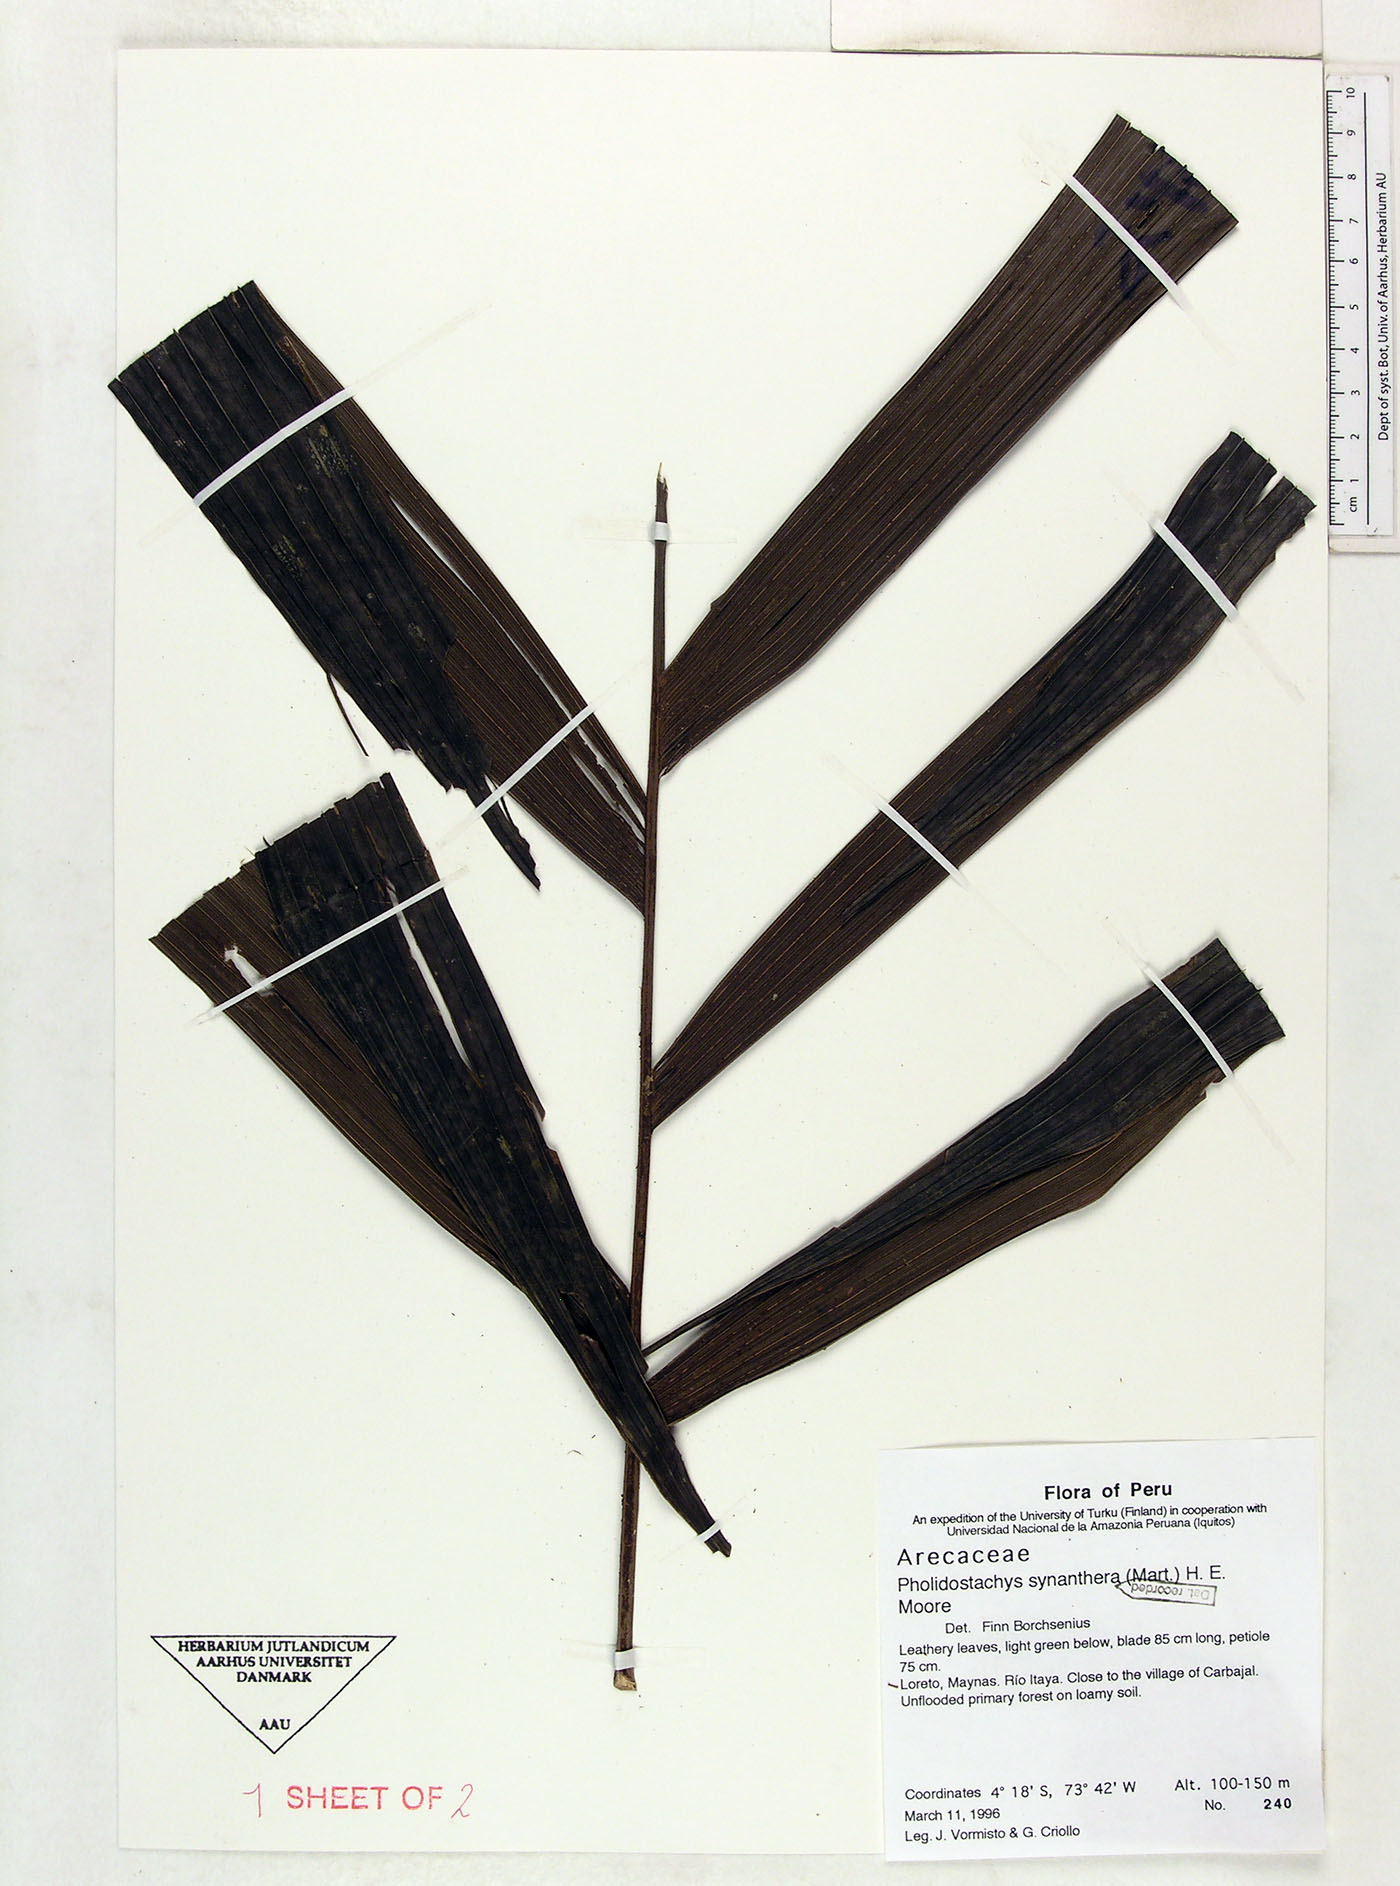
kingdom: Plantae
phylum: Tracheophyta
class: Liliopsida
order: Arecales
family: Arecaceae
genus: Pholidostachys
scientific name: Pholidostachys synanthera
